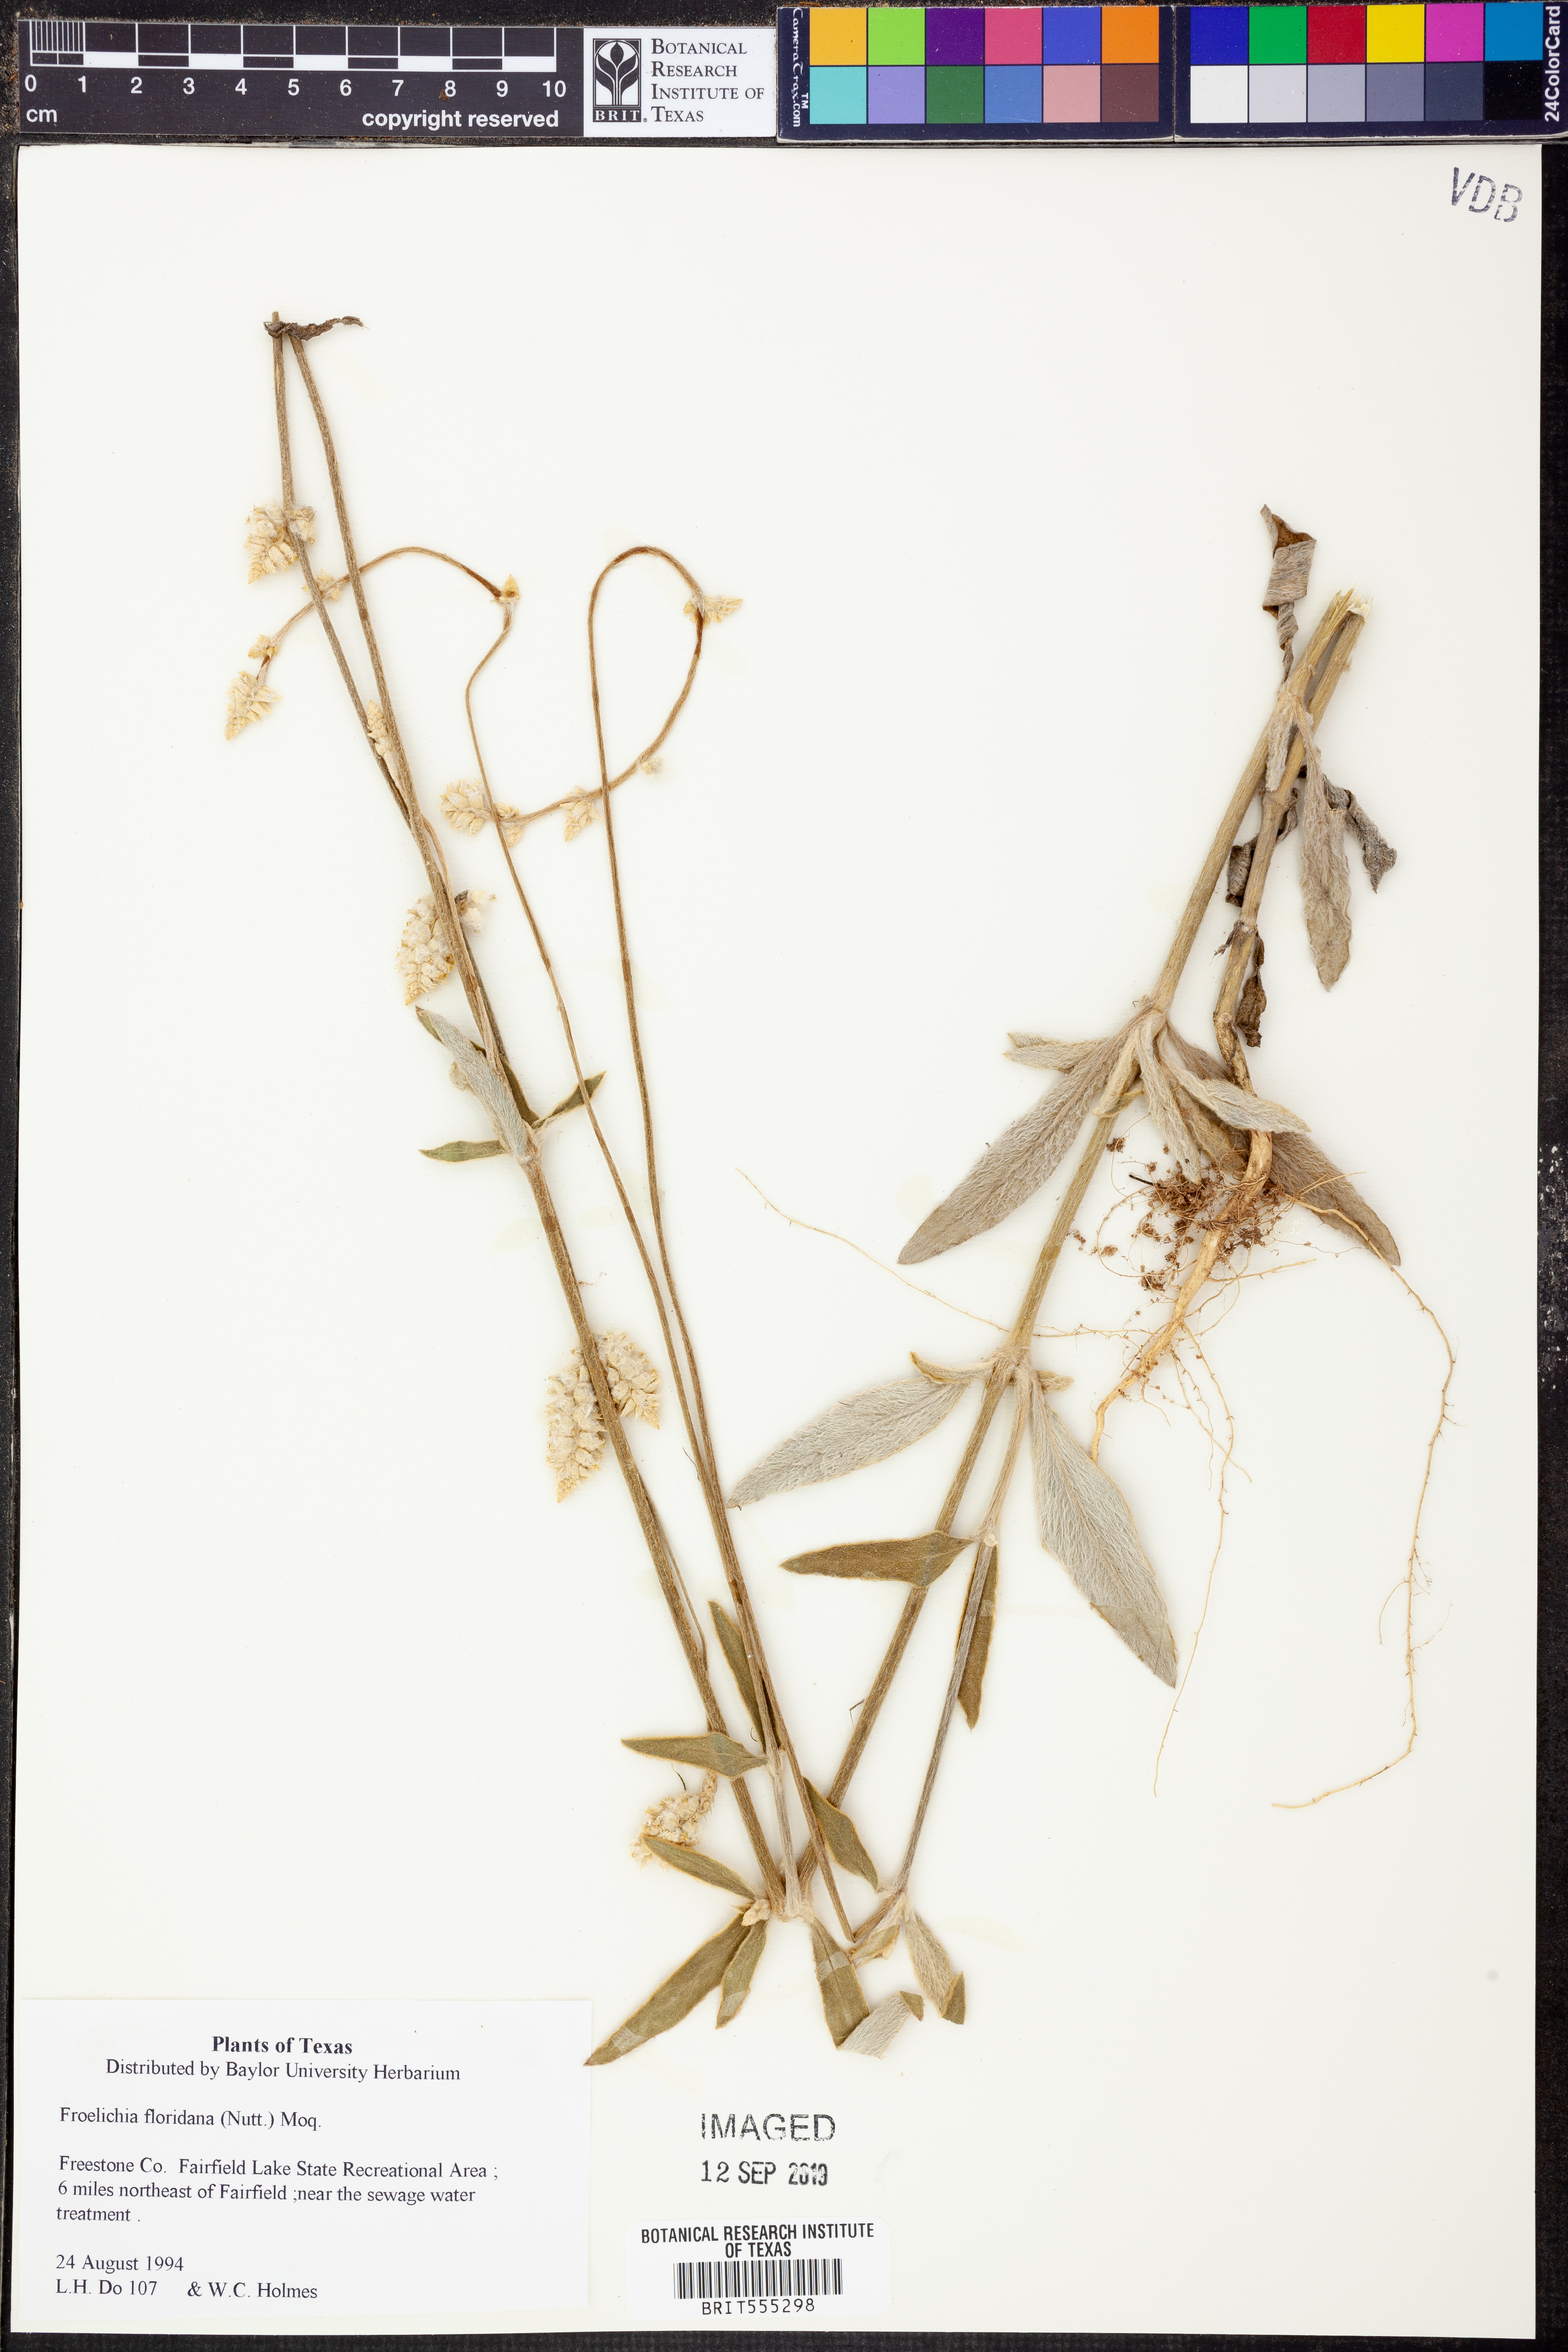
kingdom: Plantae
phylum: Tracheophyta
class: Magnoliopsida
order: Caryophyllales
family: Amaranthaceae
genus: Froelichia
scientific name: Froelichia floridana
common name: Florida snake-cotton
